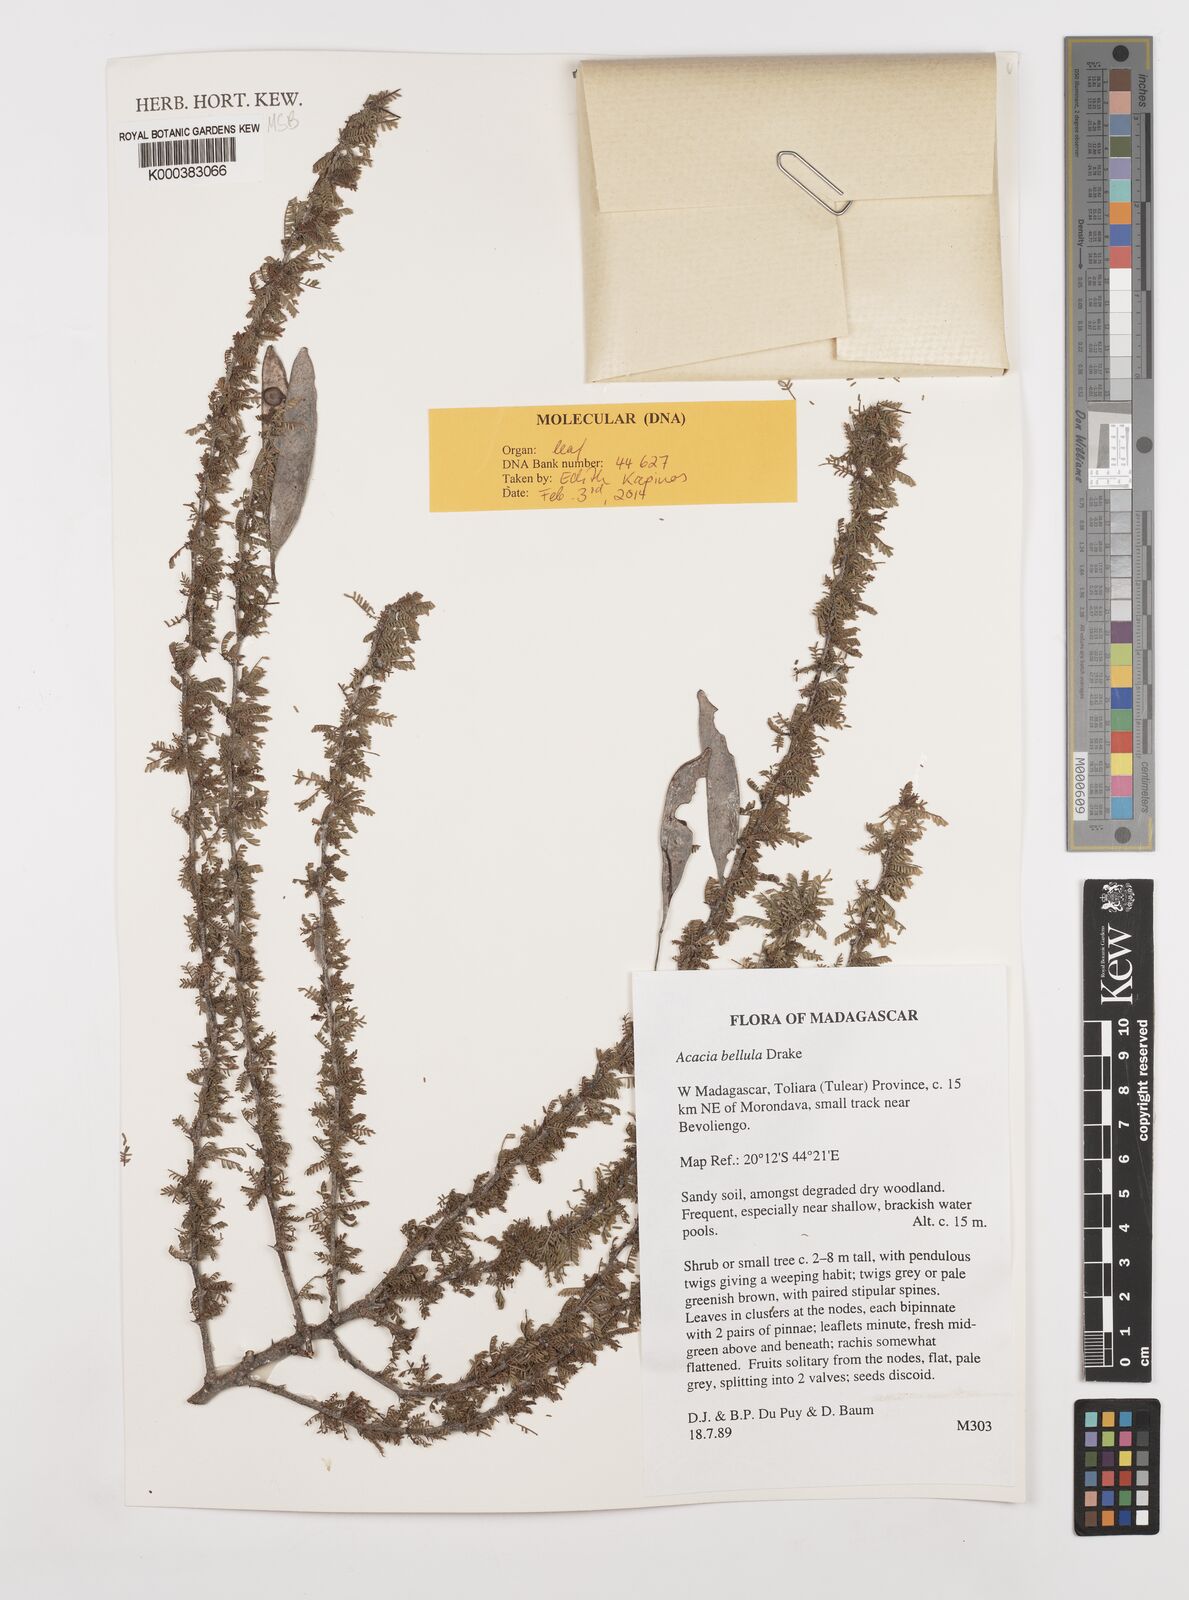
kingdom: Plantae
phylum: Tracheophyta
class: Magnoliopsida
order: Fabales
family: Fabaceae
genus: Vachellia
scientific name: Vachellia bellula
